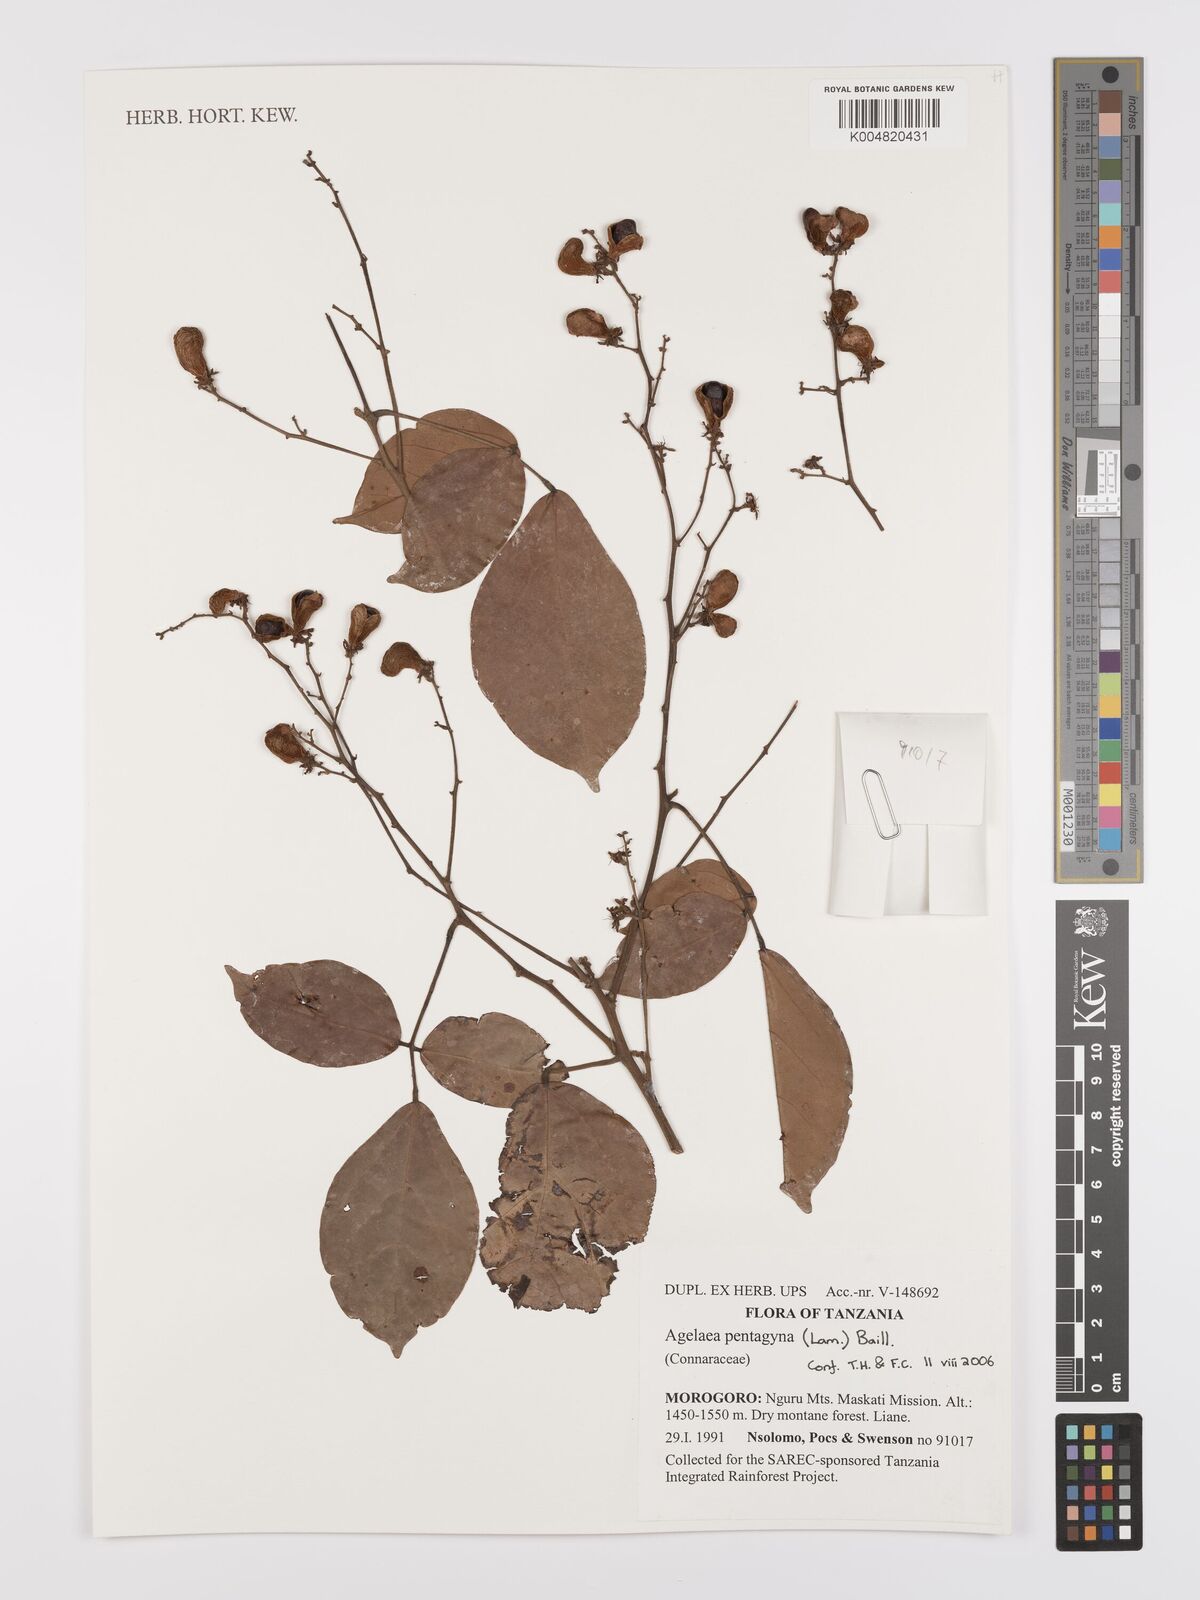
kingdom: Plantae
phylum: Tracheophyta
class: Magnoliopsida
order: Oxalidales
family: Connaraceae
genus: Agelaea
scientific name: Agelaea pentagyna
